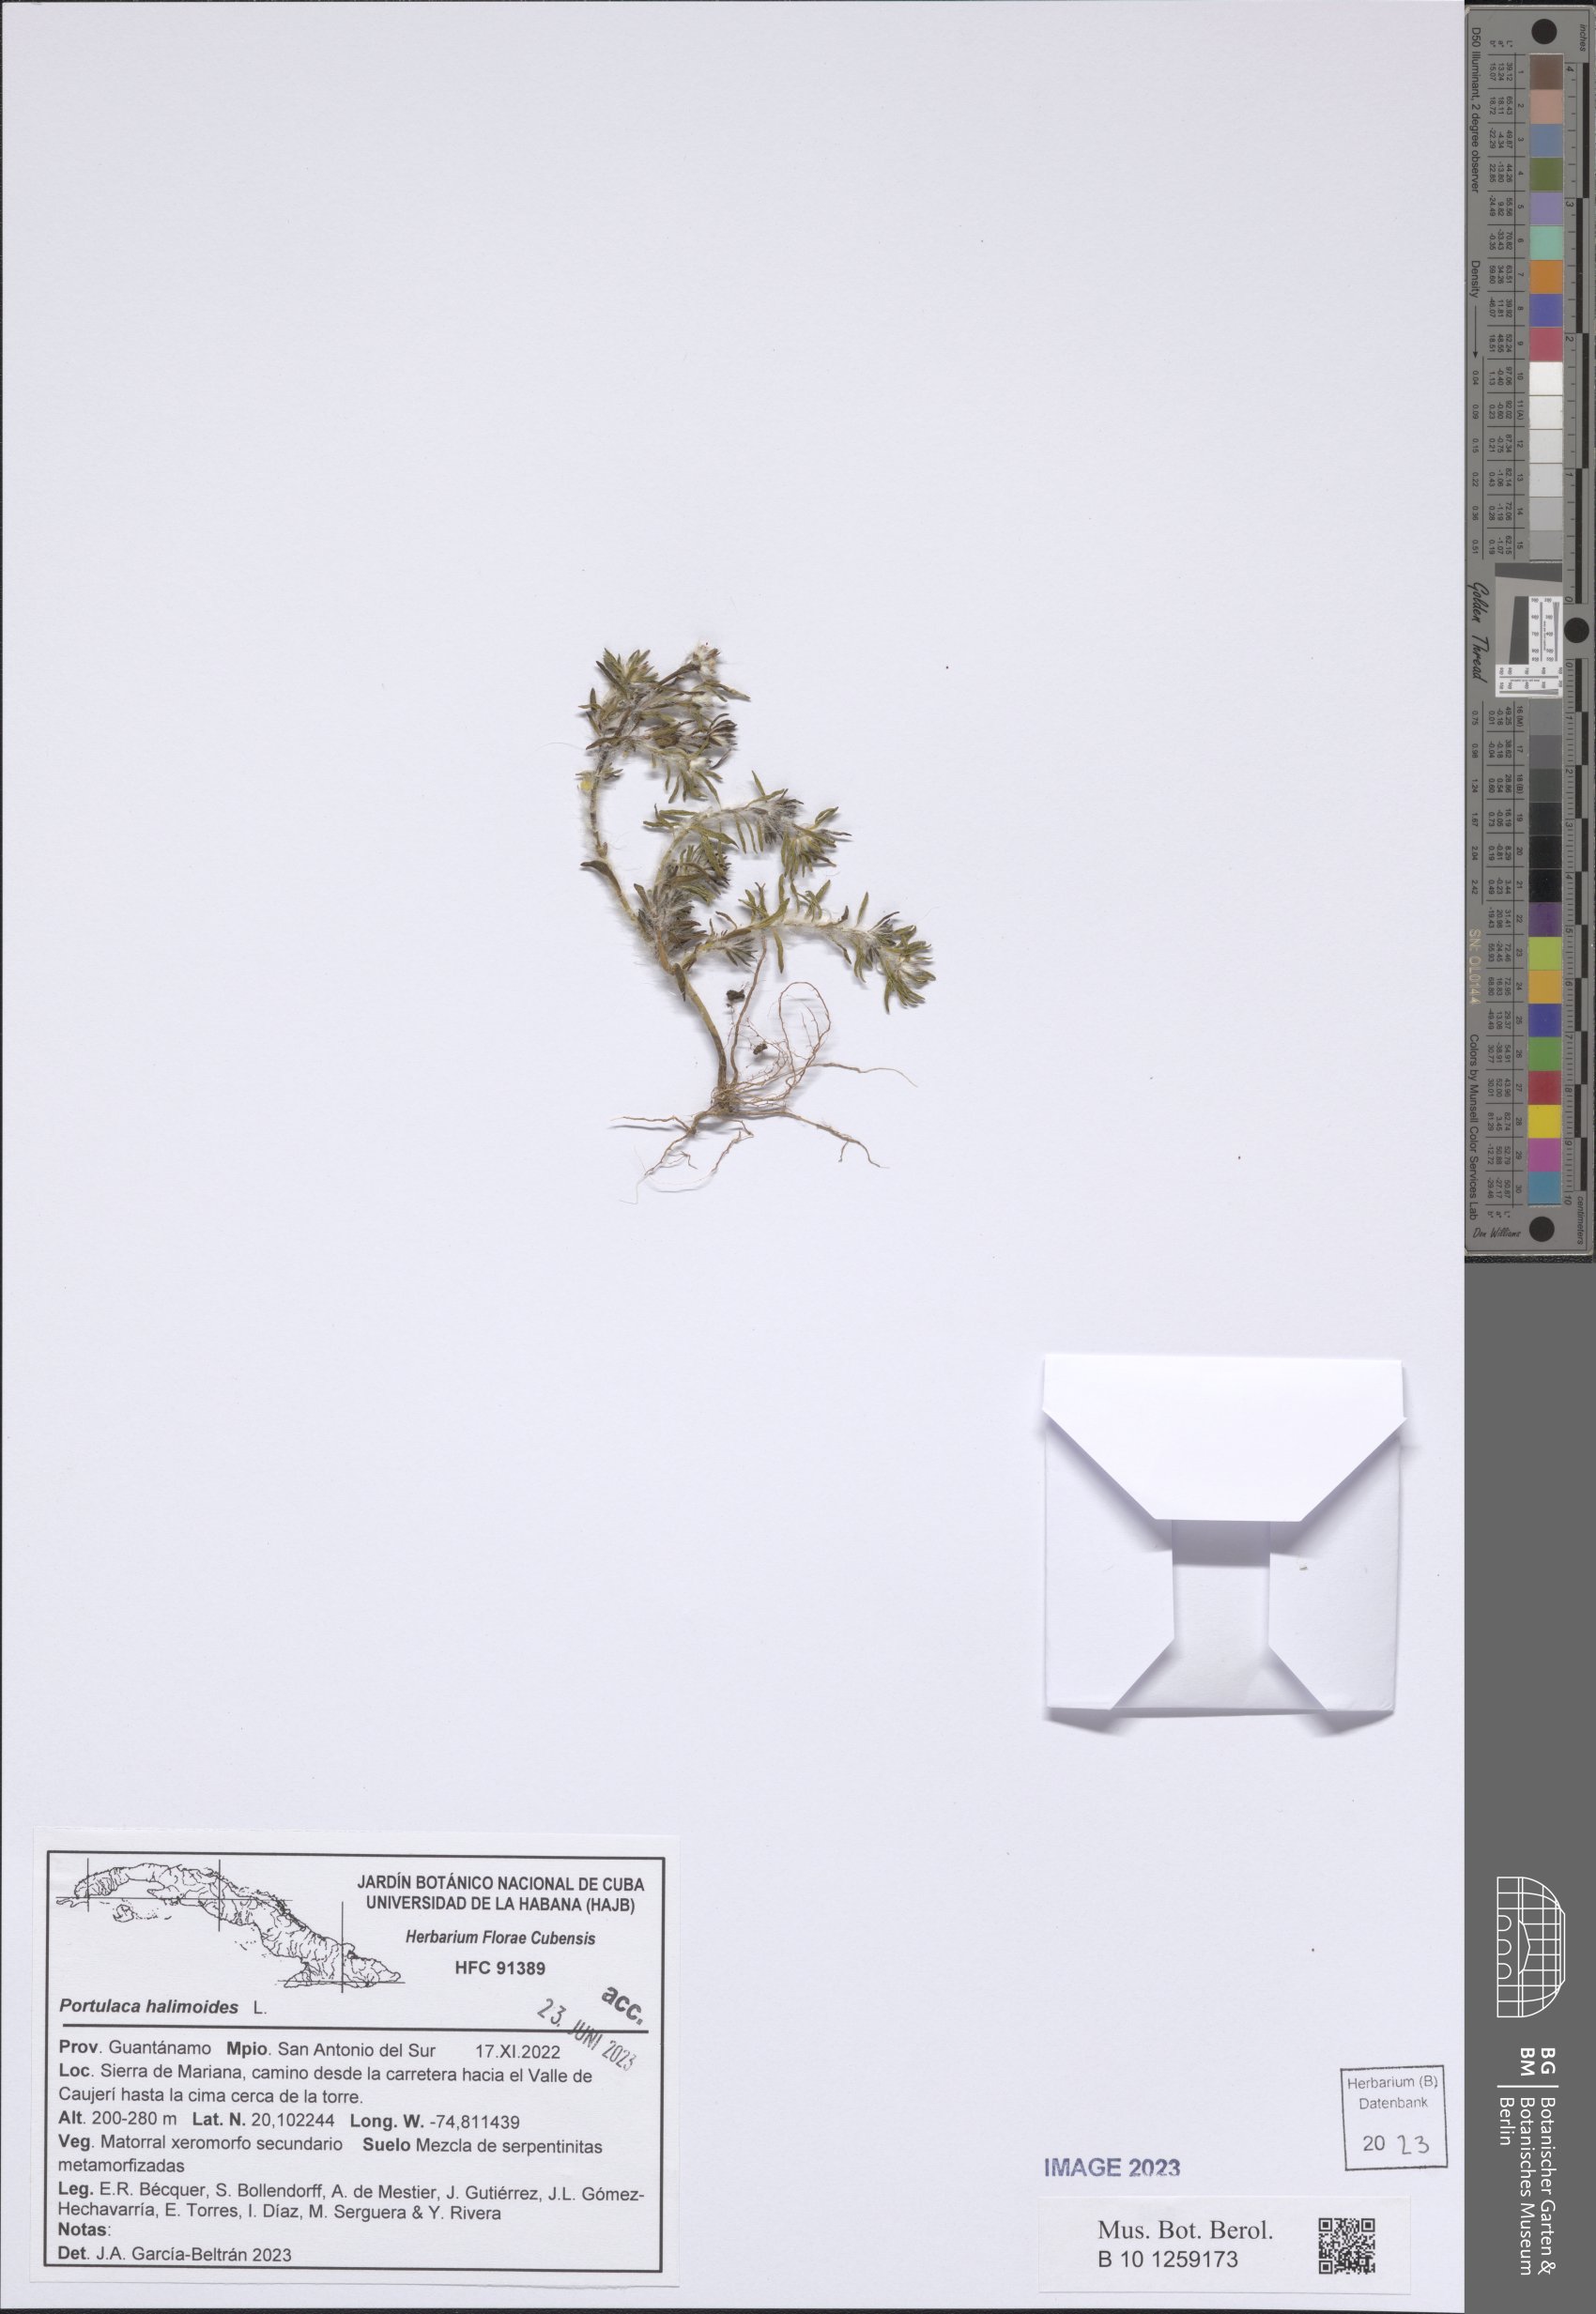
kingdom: Plantae
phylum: Tracheophyta
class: Magnoliopsida
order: Caryophyllales
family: Portulacaceae
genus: Portulaca
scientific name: Portulaca halimoides
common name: Silk cotton purslane
